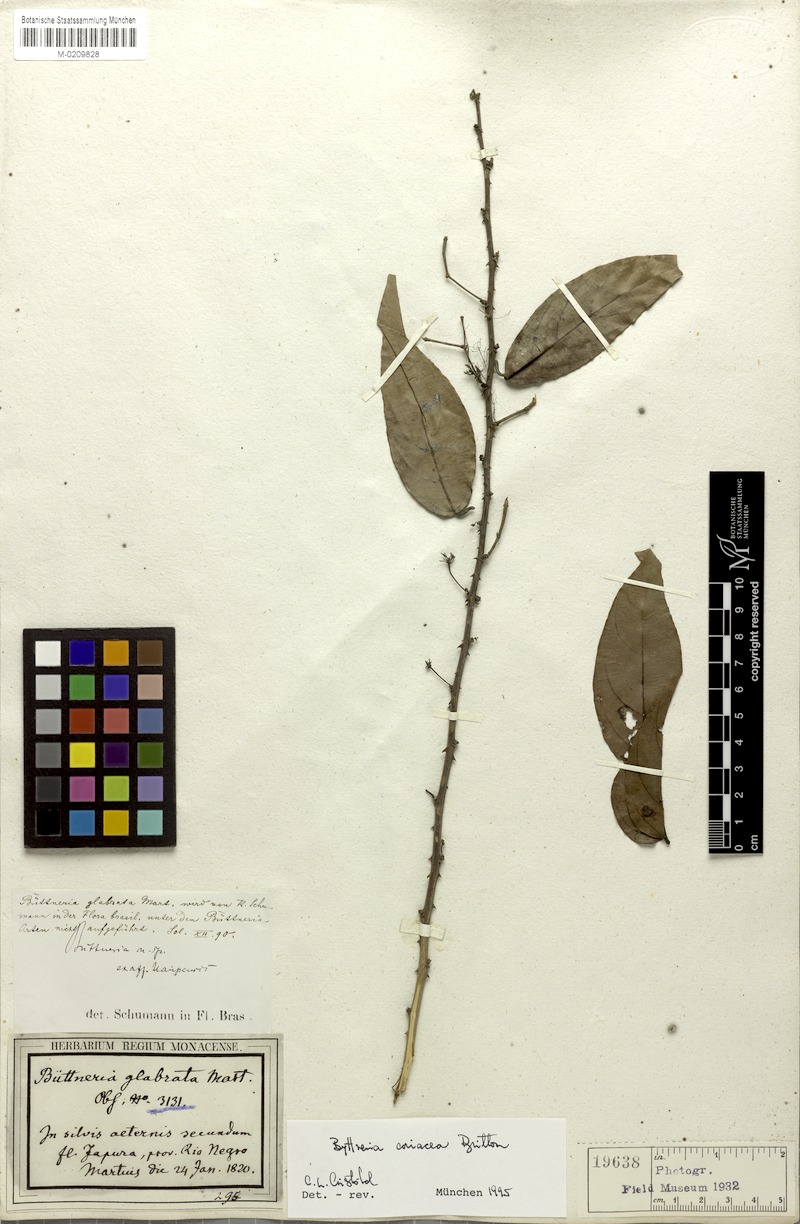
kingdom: Plantae
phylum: Tracheophyta
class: Magnoliopsida
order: Malvales
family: Malvaceae
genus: Byttneria
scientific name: Byttneria coriacea
